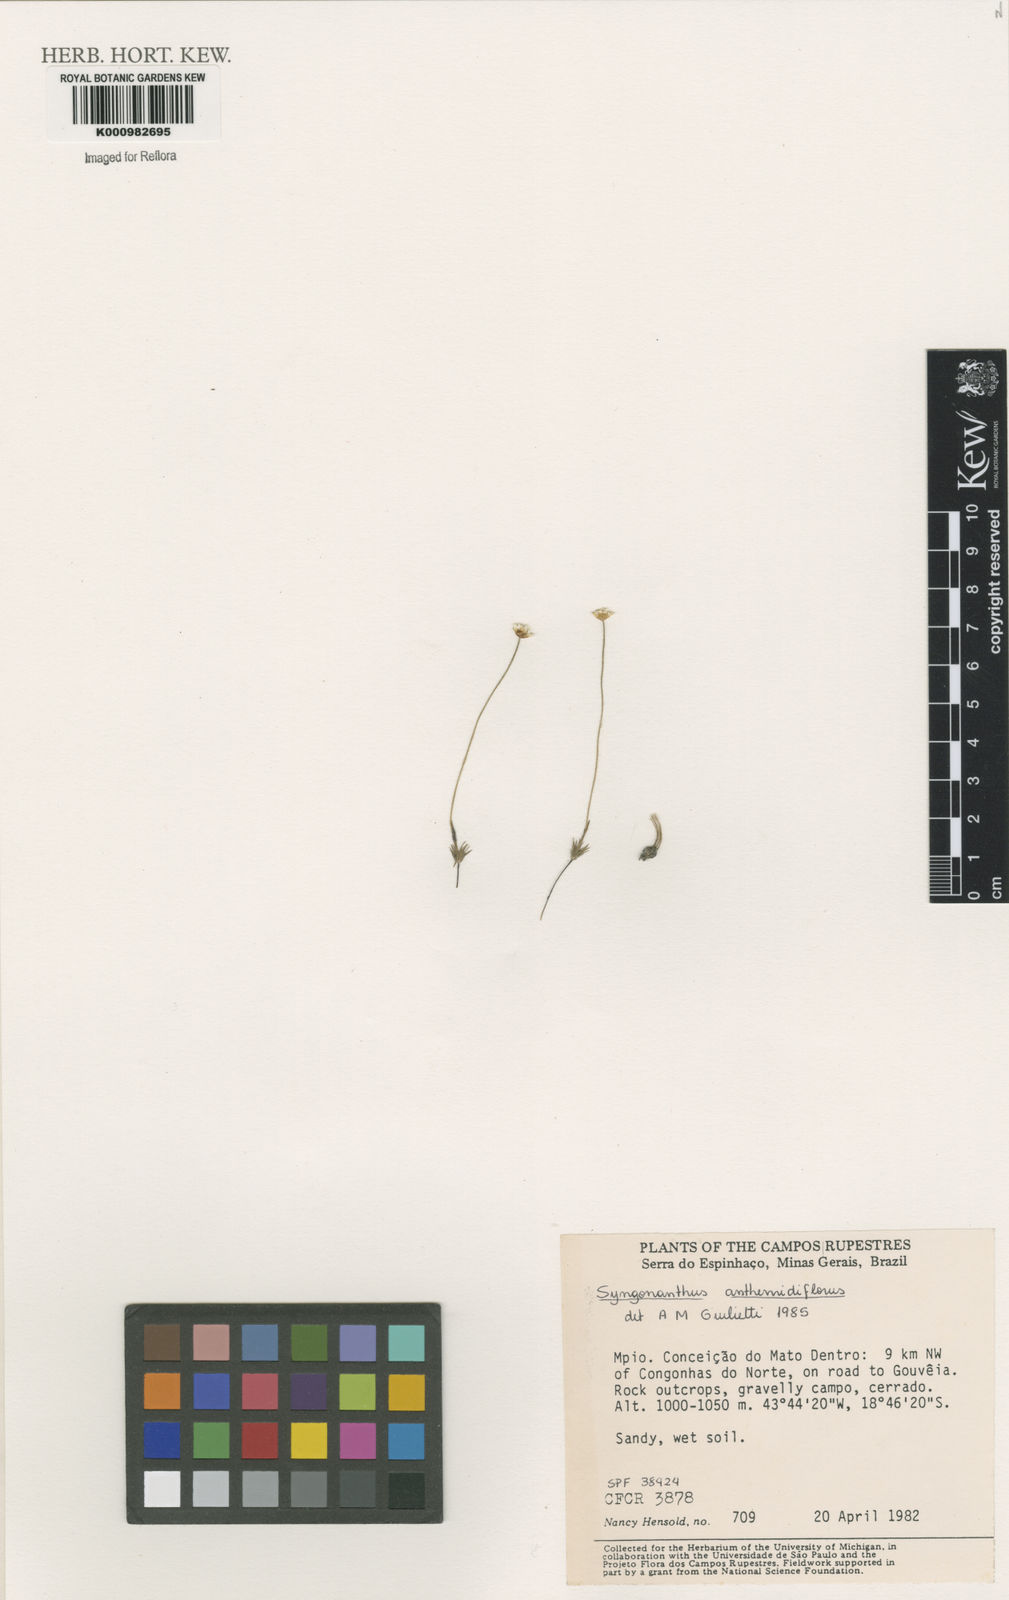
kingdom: Plantae
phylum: Tracheophyta
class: Liliopsida
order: Poales
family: Eriocaulaceae
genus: Syngonanthus
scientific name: Syngonanthus anthemidiflorus
